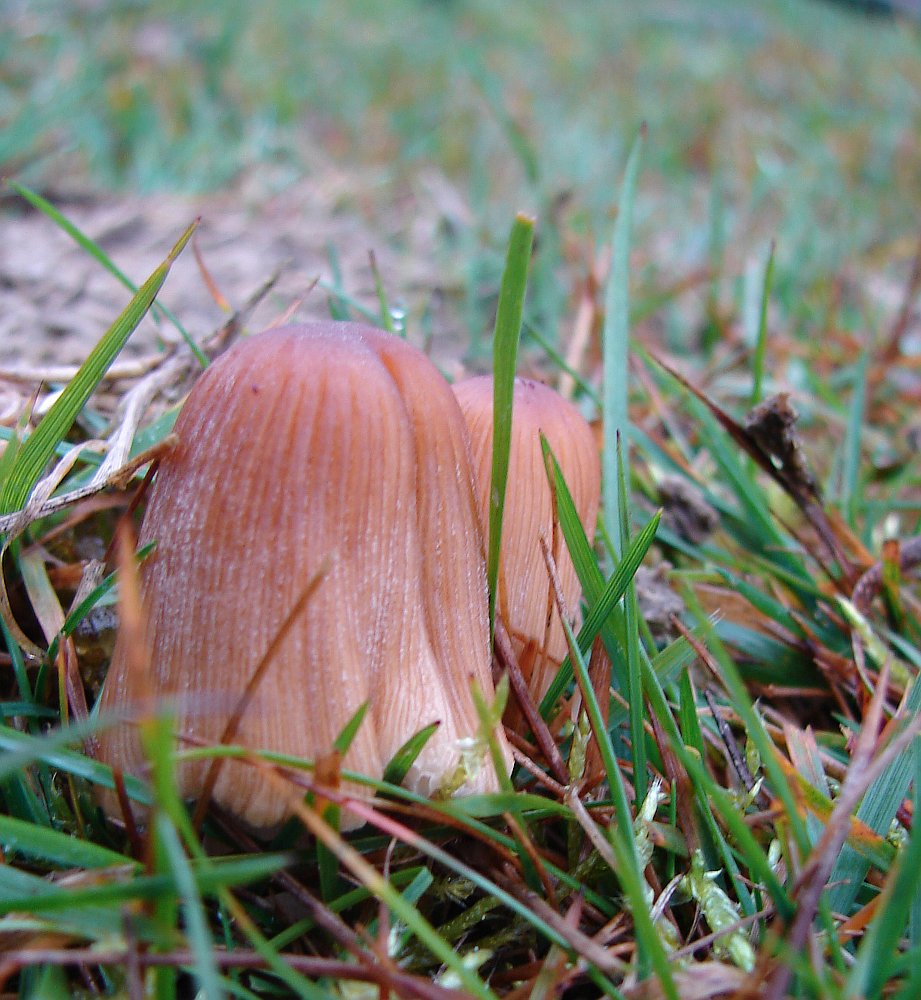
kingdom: Fungi
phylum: Basidiomycota
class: Agaricomycetes
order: Agaricales
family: Psathyrellaceae
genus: Coprinellus
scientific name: Coprinellus micaceus
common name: glimmer-blækhat
